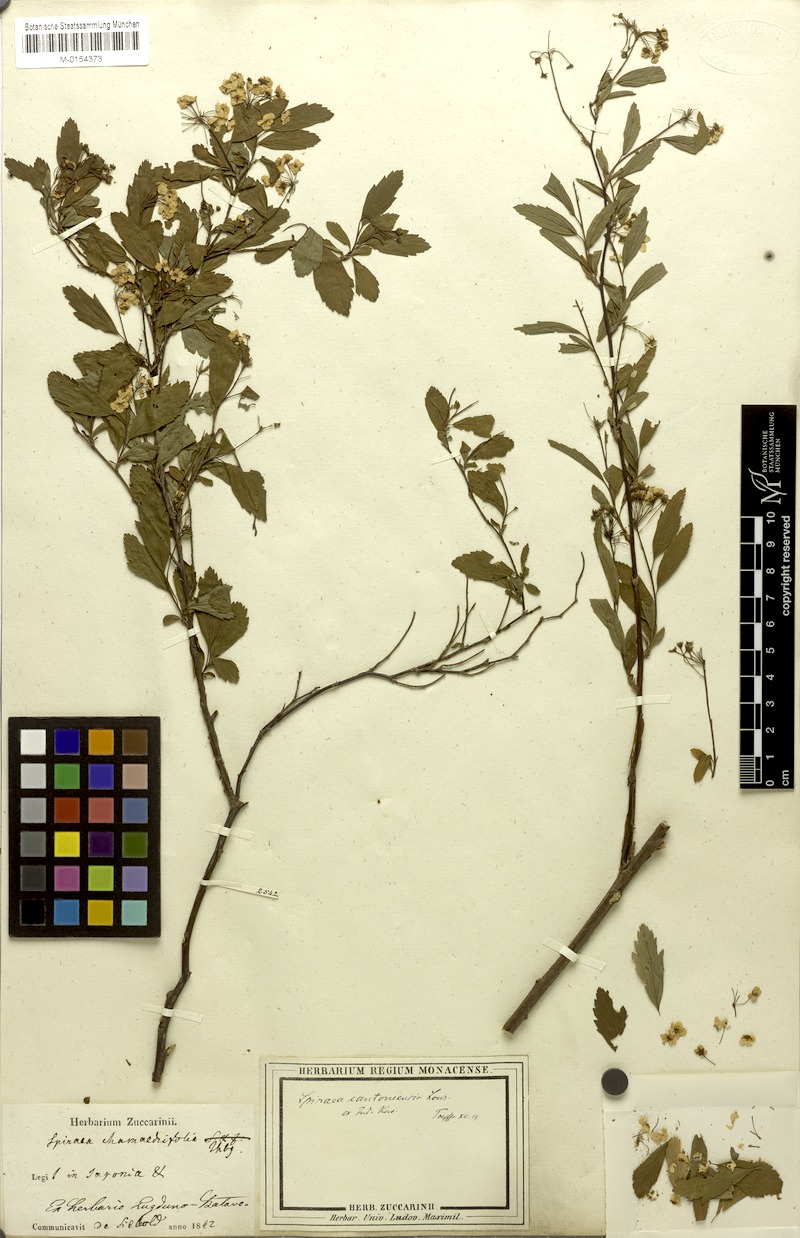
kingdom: Plantae
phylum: Tracheophyta
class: Magnoliopsida
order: Rosales
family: Rosaceae
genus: Spiraea
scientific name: Spiraea cantoniensis
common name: Reeves' meadowsweet
